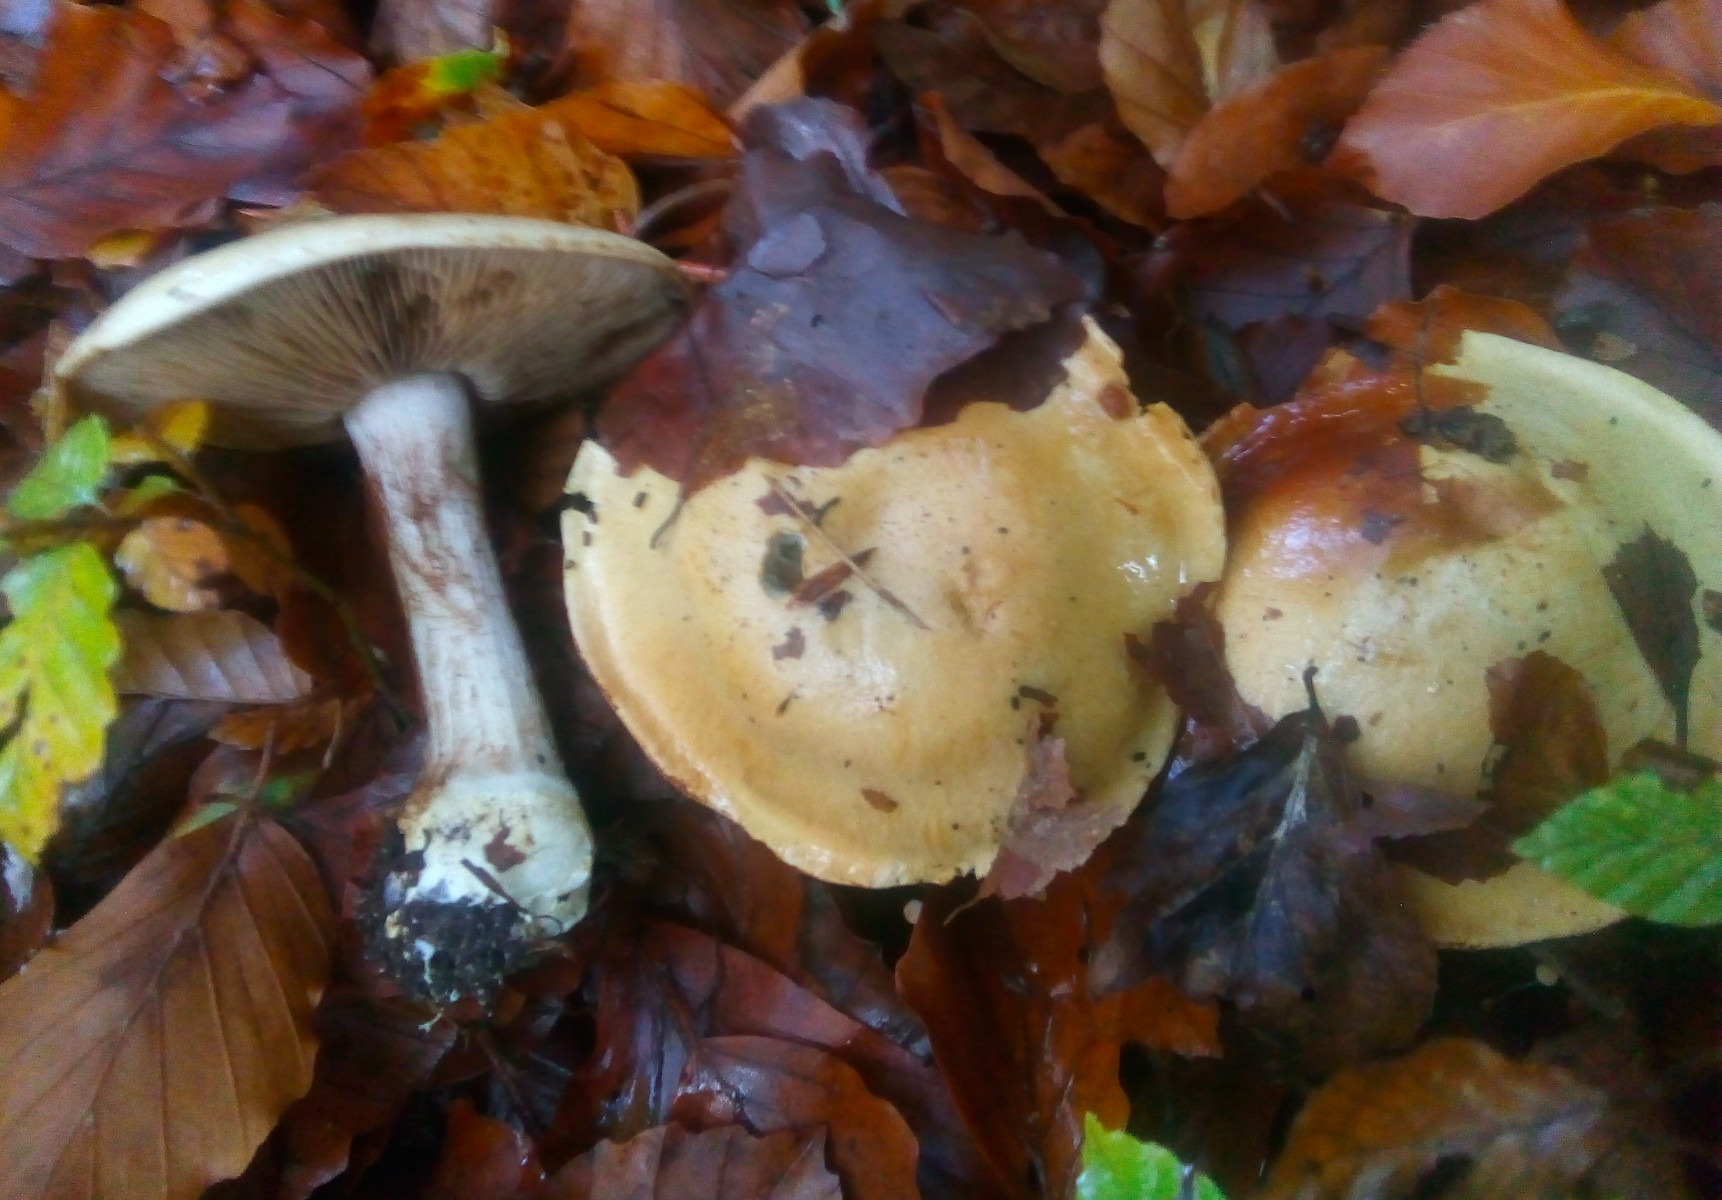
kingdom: Fungi
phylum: Basidiomycota
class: Agaricomycetes
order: Agaricales
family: Cortinariaceae
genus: Cortinarius
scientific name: Cortinarius anserinus
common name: bøge-slørhat
